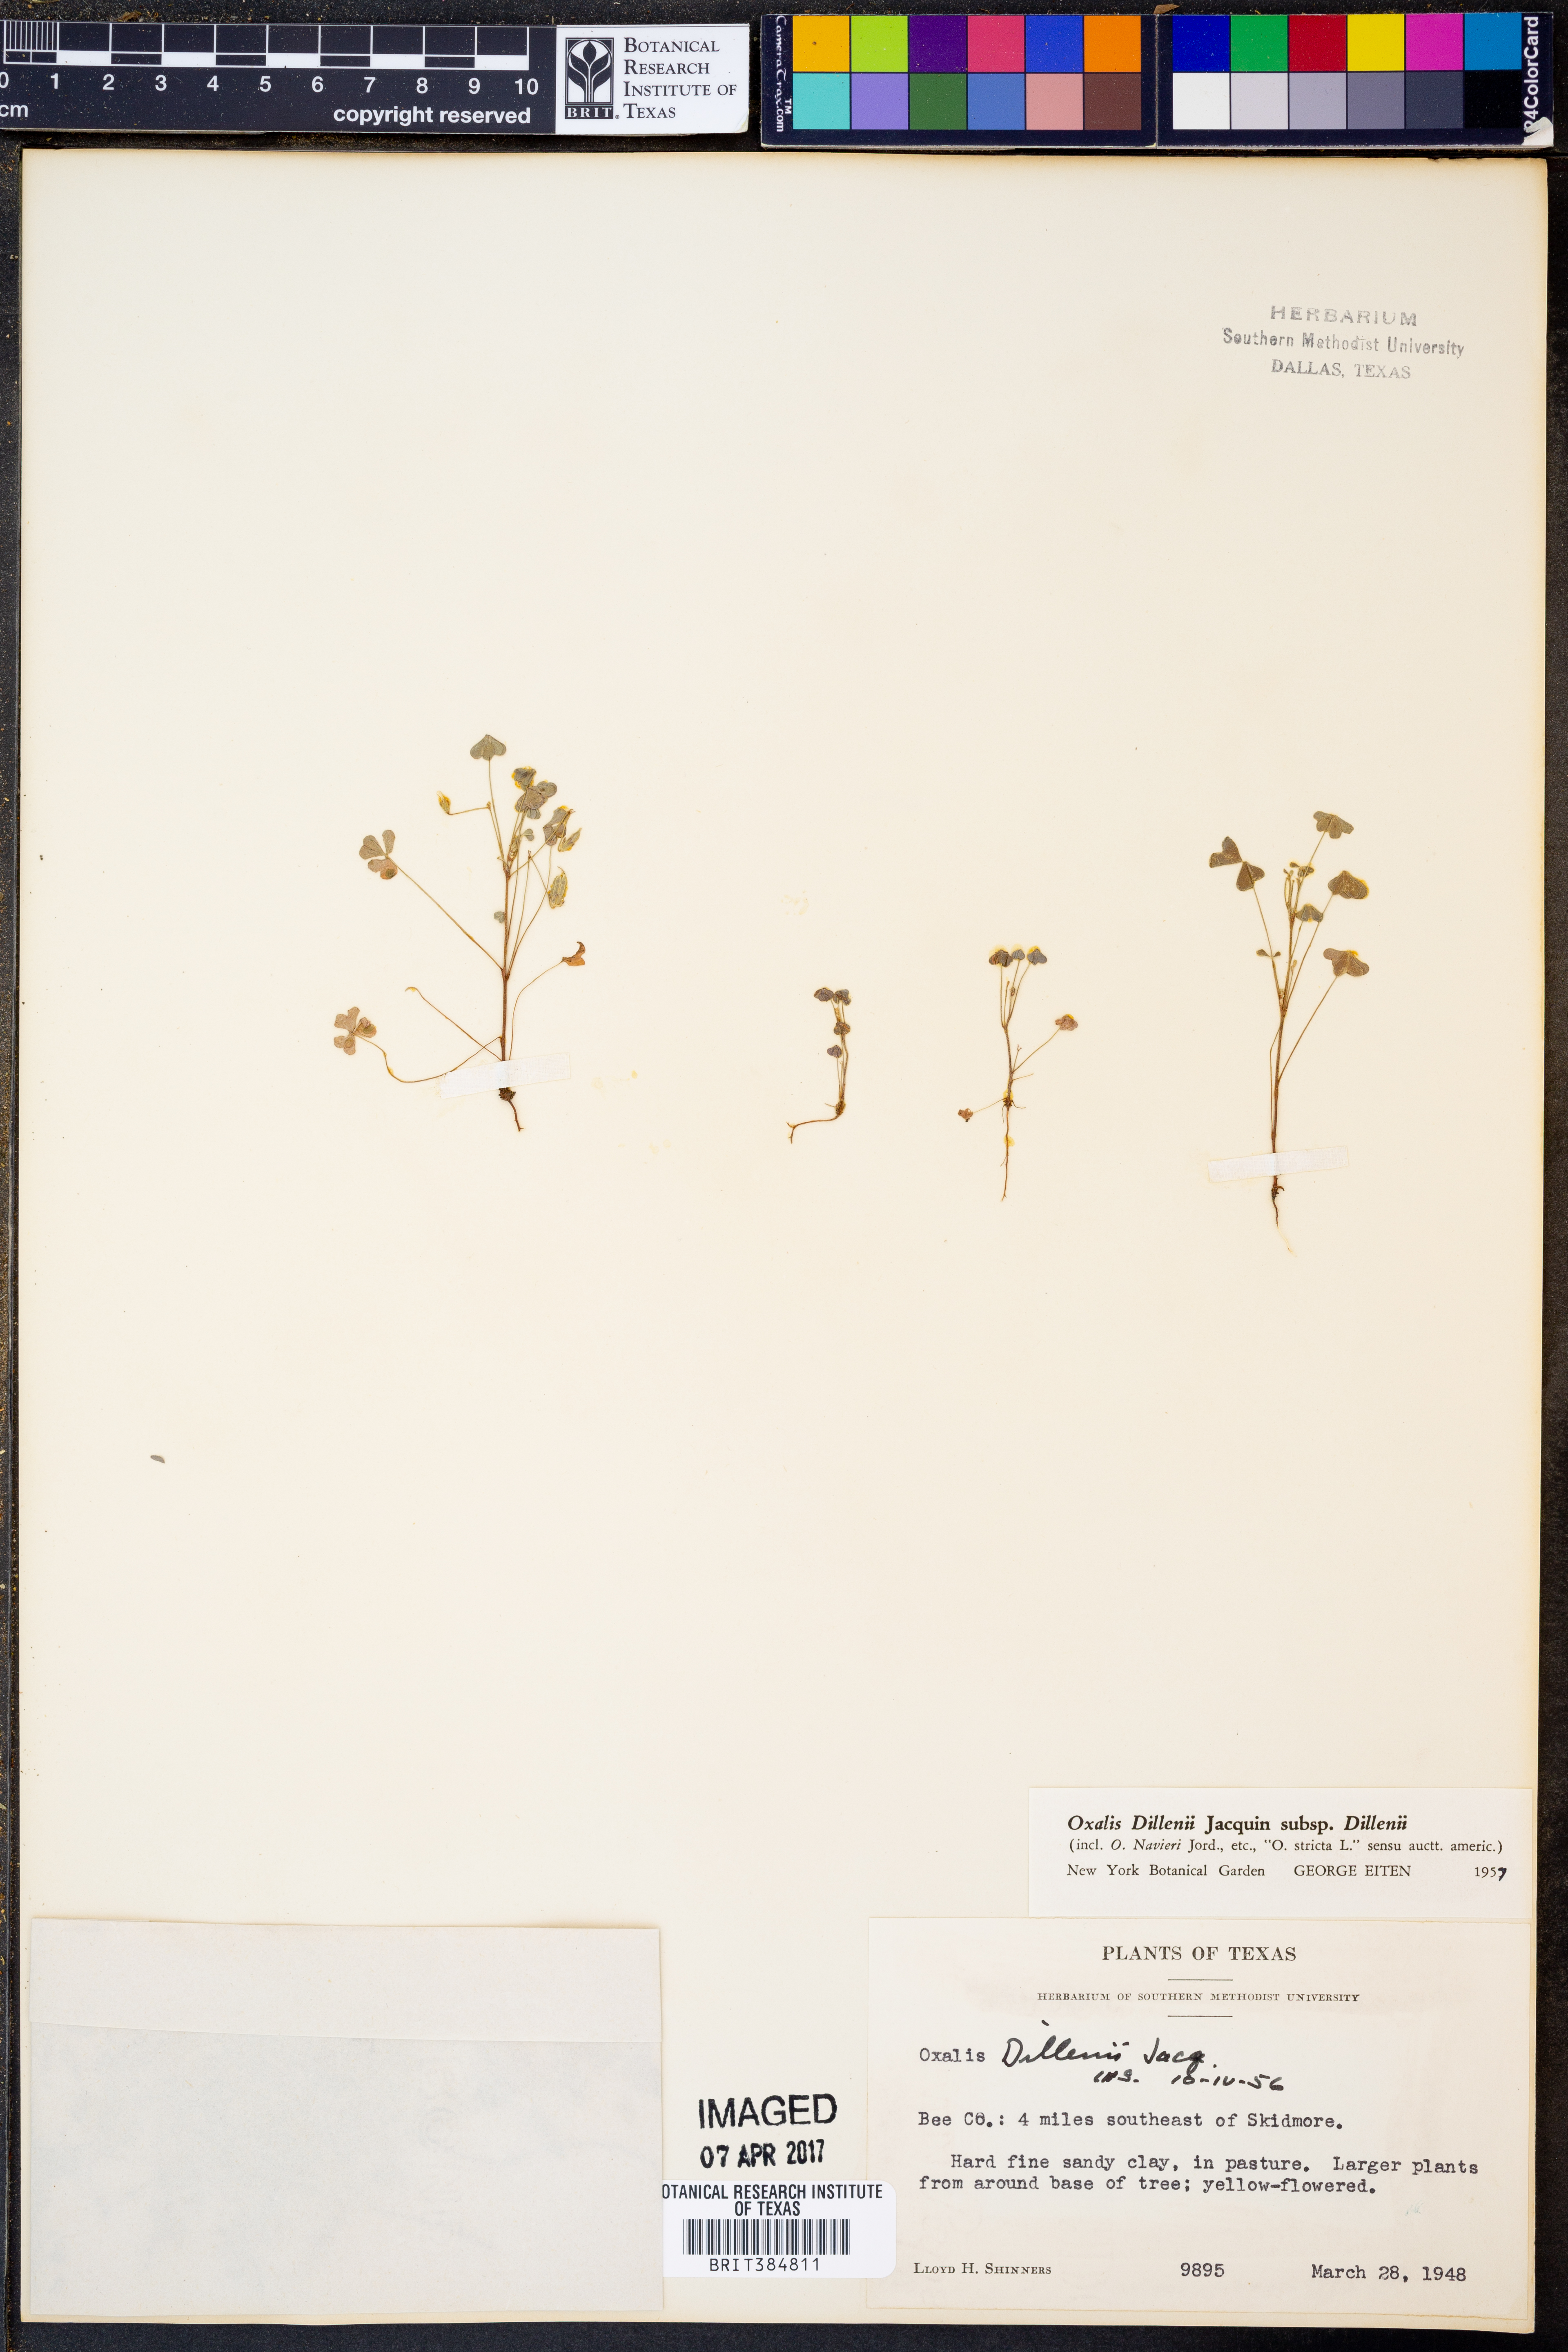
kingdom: Plantae
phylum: Tracheophyta
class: Magnoliopsida
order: Oxalidales
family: Oxalidaceae
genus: Oxalis
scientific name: Oxalis dillenii
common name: Sussex yellow-sorrel
